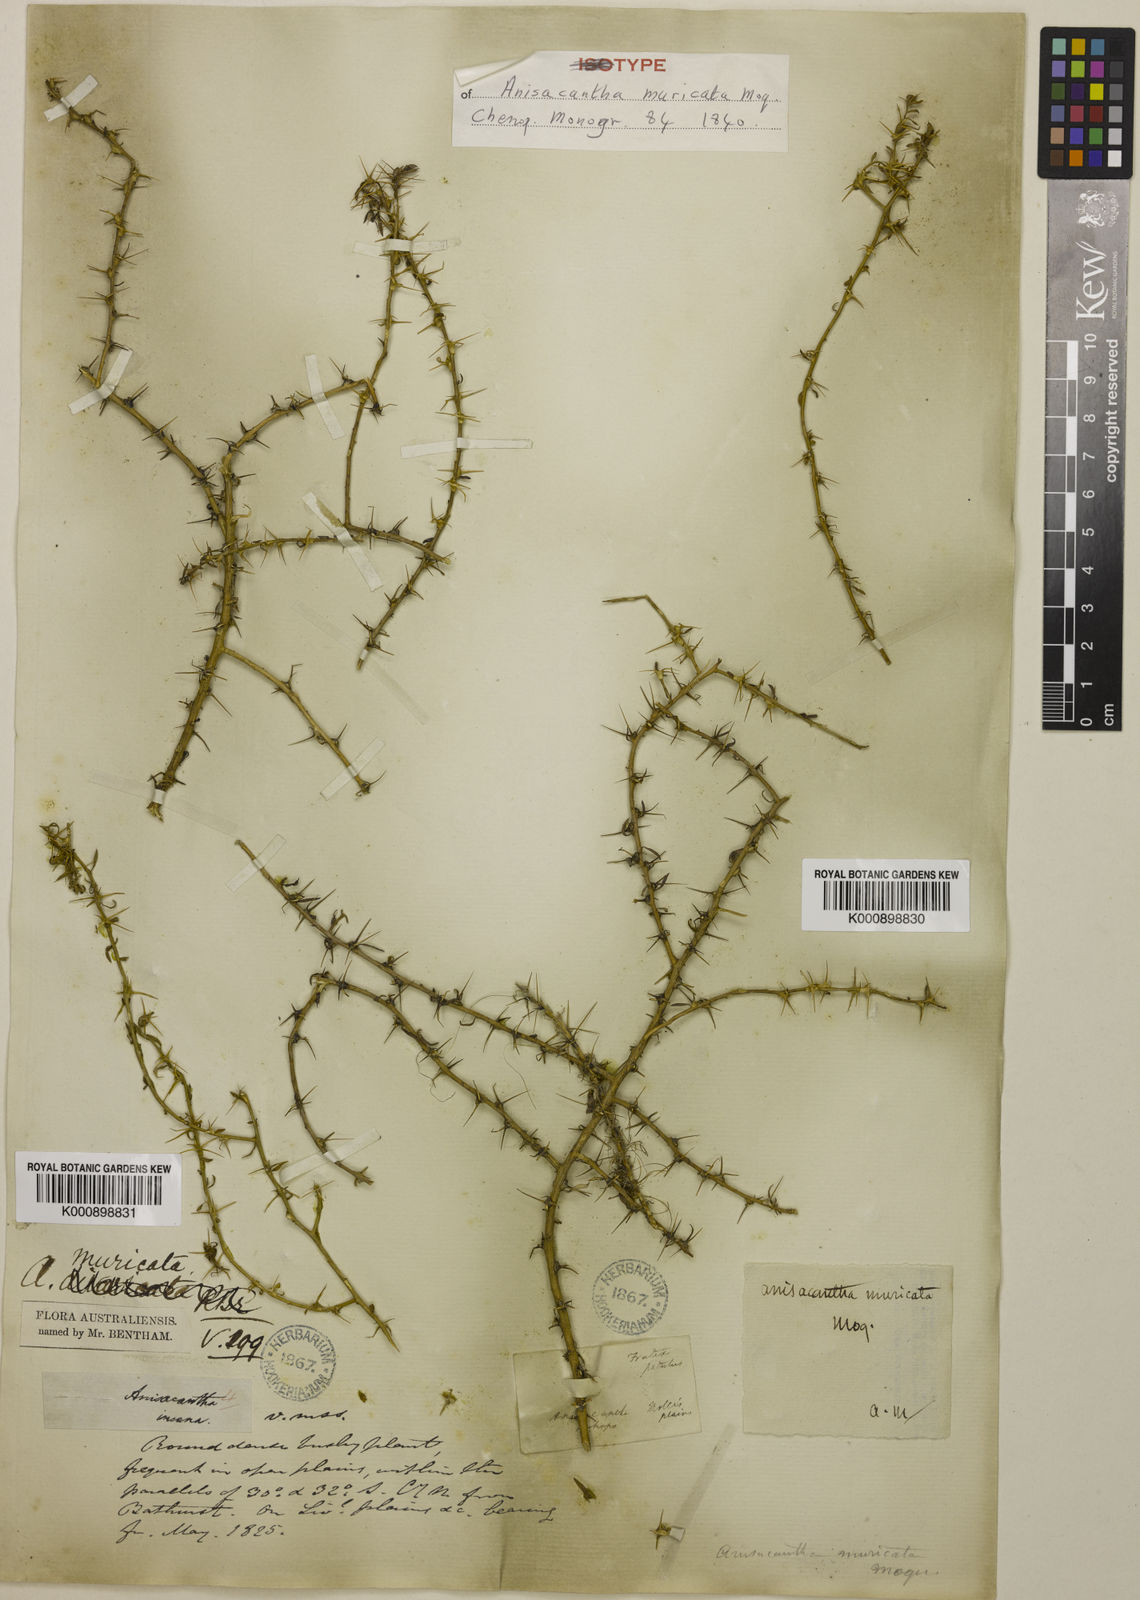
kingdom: Plantae
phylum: Tracheophyta
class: Magnoliopsida
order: Caryophyllales
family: Amaranthaceae
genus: Sclerolaena
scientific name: Sclerolaena muricata
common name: Roly-poly
